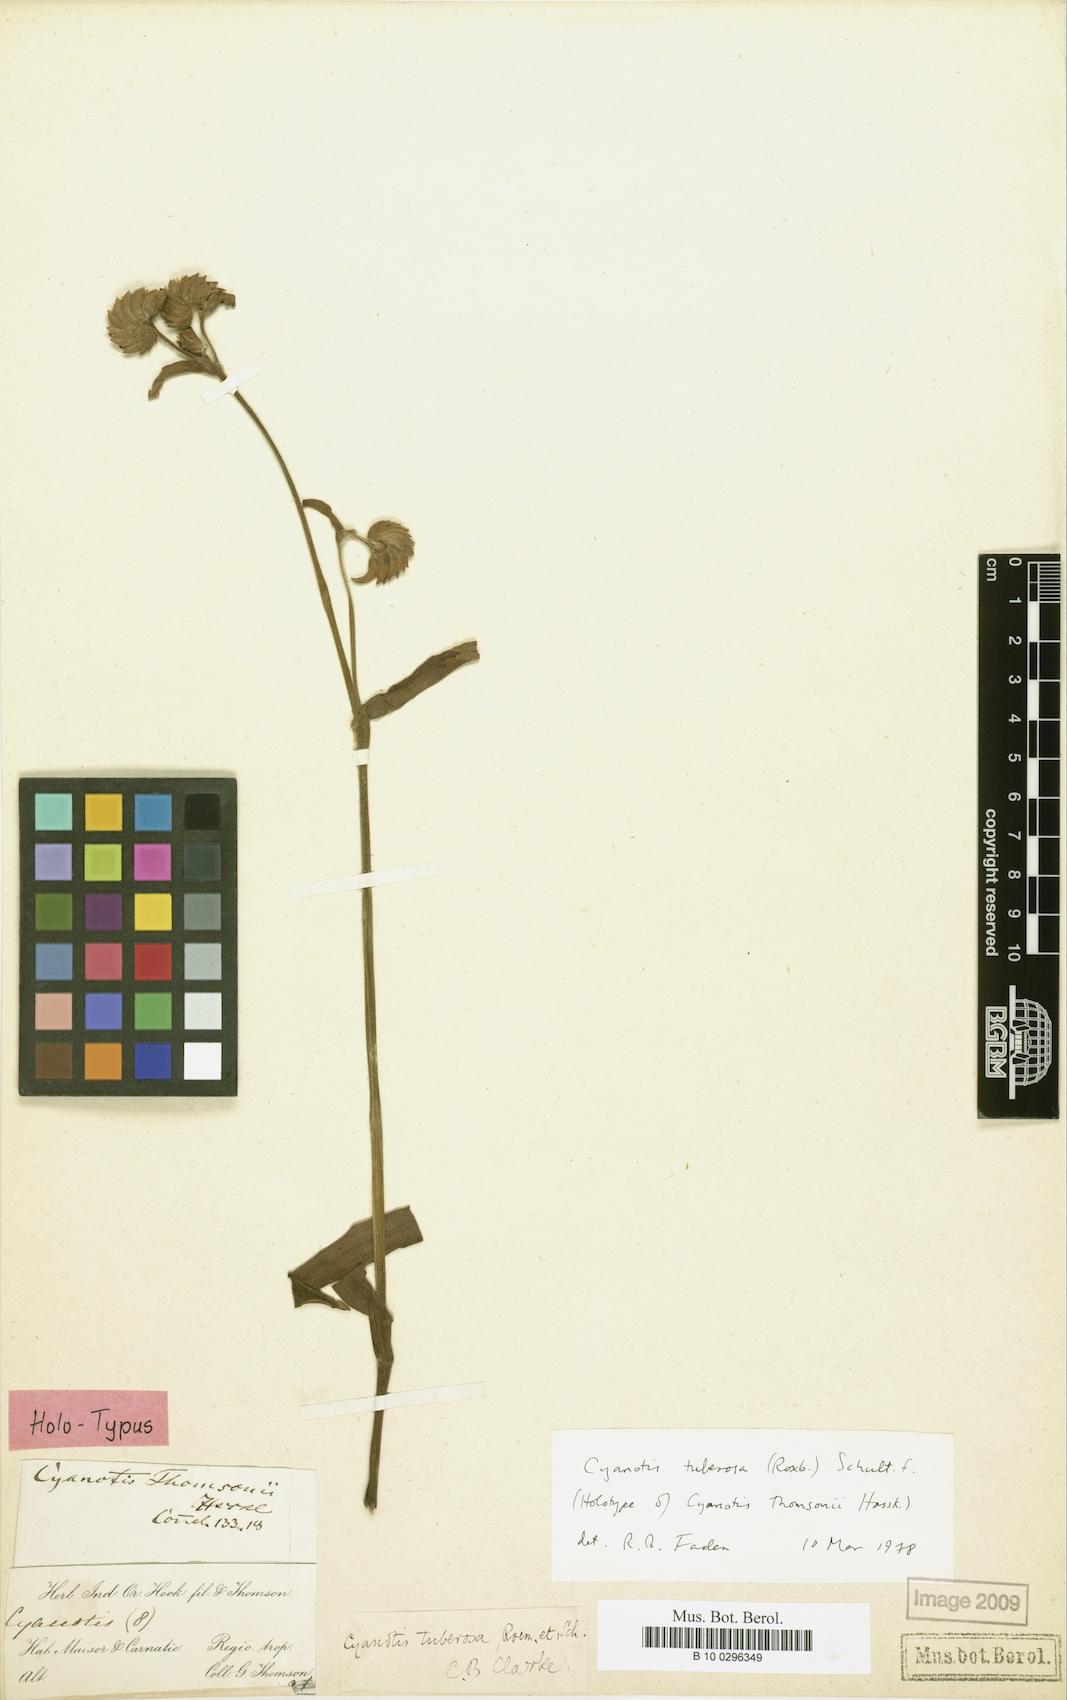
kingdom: Plantae
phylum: Tracheophyta
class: Liliopsida
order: Commelinales
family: Commelinaceae
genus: Cyanotis
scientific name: Cyanotis tuberosa
